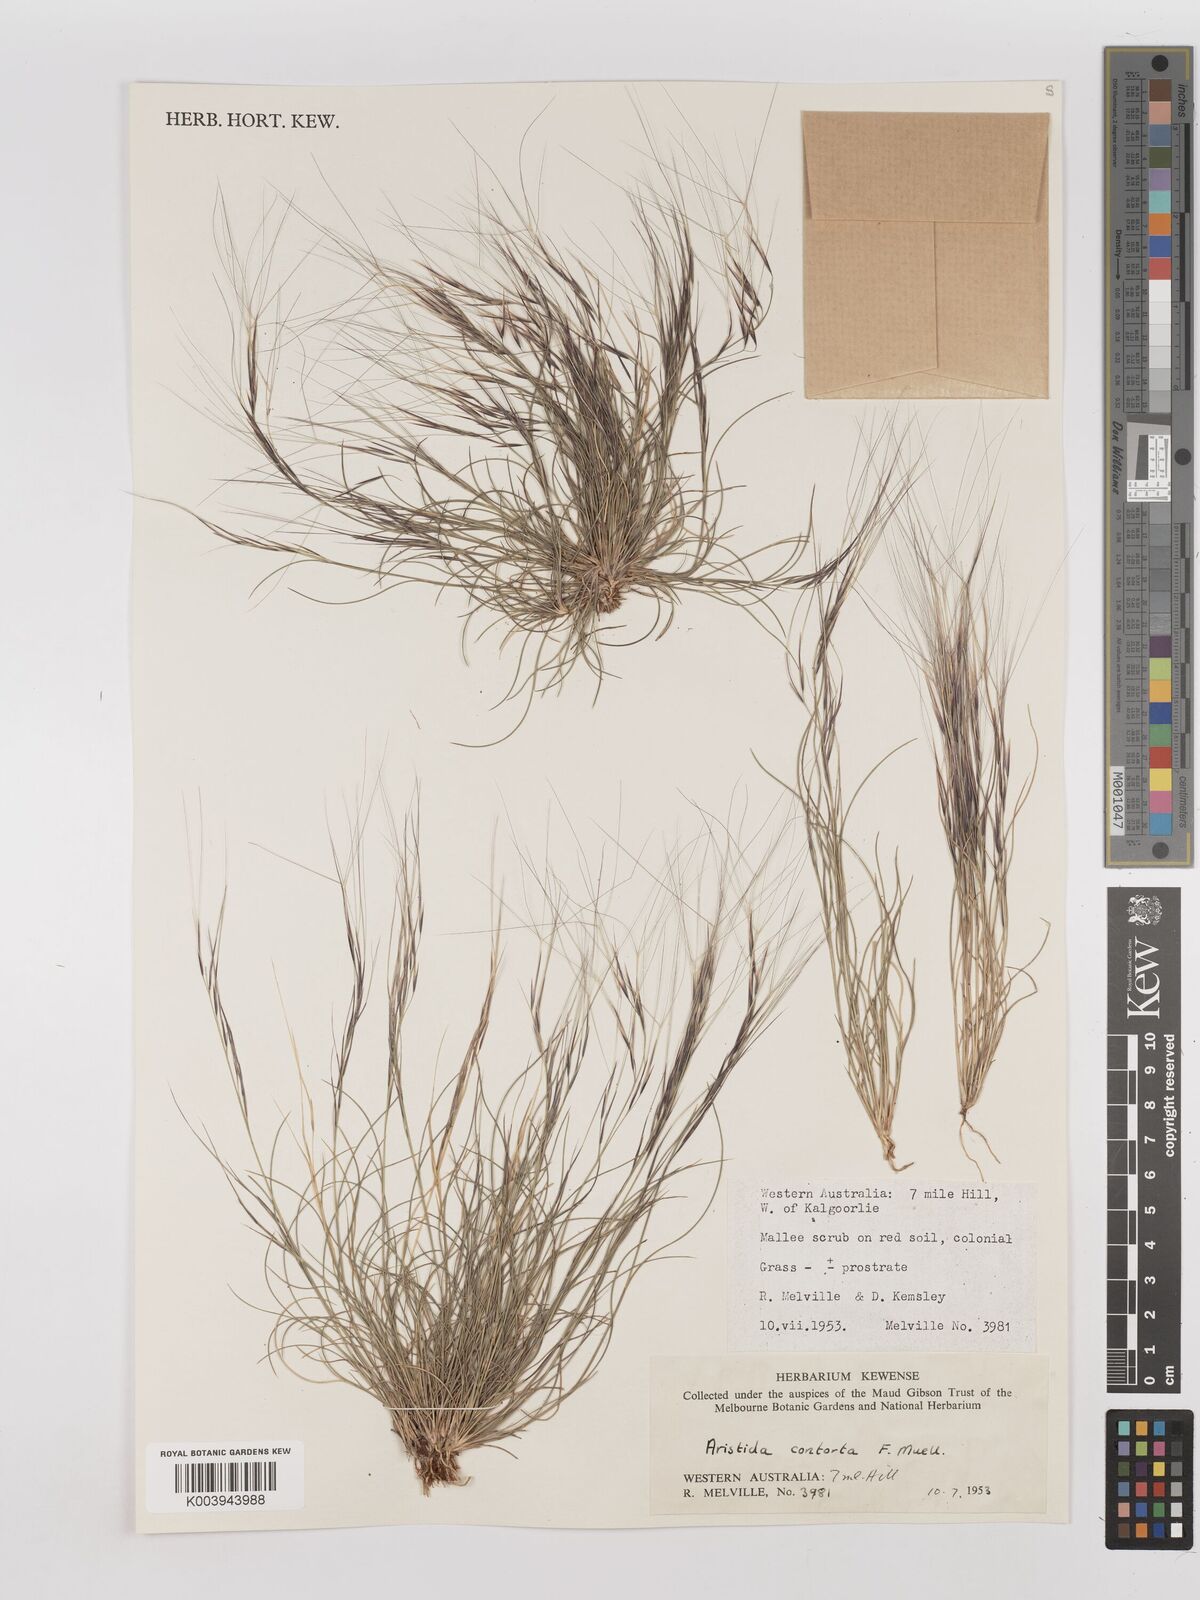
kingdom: Plantae
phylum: Tracheophyta
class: Liliopsida
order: Poales
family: Poaceae
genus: Aristida
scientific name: Aristida contorta
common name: Bunch kerosene grass
